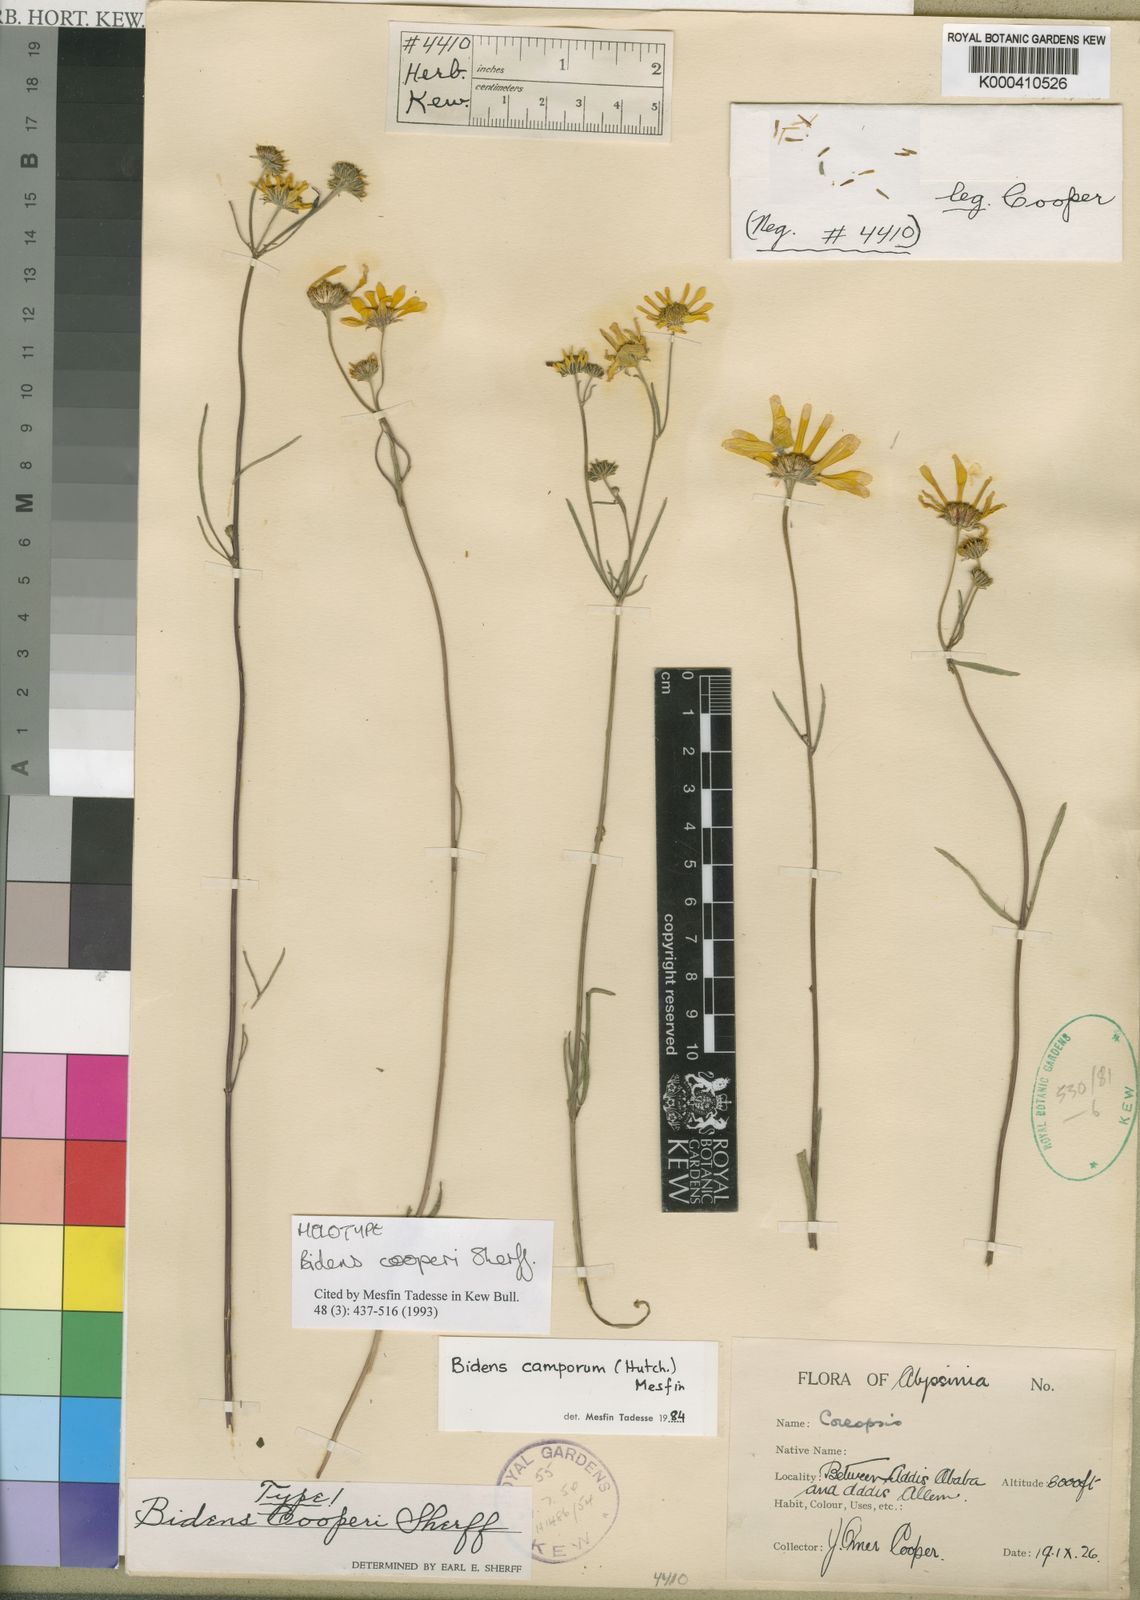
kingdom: Plantae
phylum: Tracheophyta
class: Magnoliopsida
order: Asterales
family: Asteraceae
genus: Bidens
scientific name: Bidens camporum
